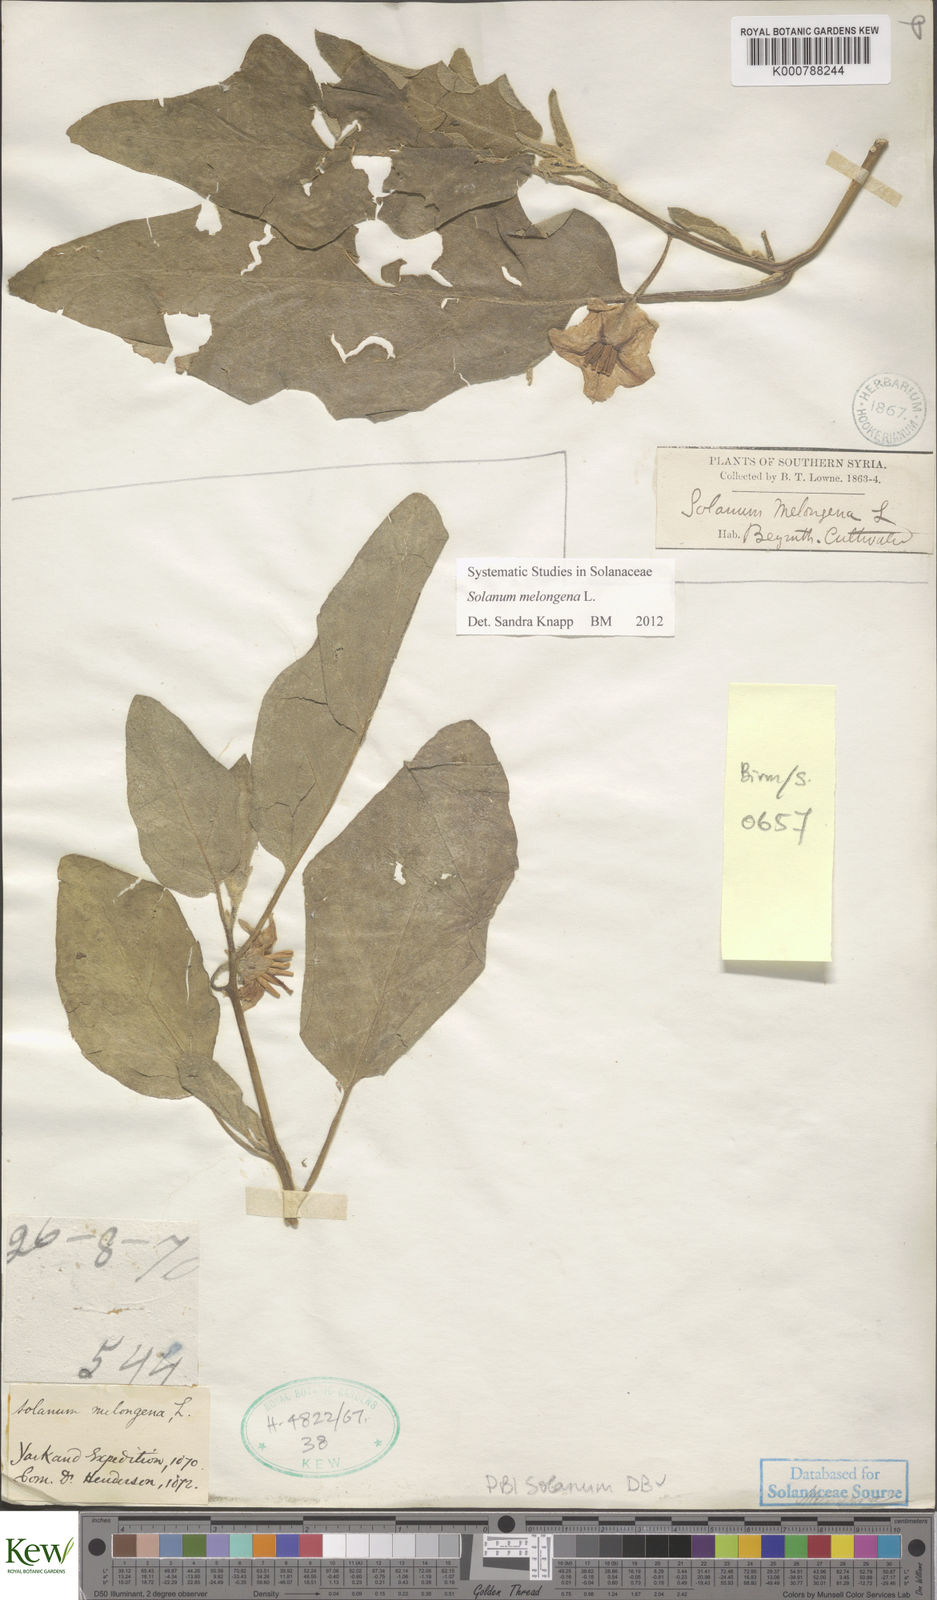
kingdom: Plantae
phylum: Tracheophyta
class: Magnoliopsida
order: Solanales
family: Solanaceae
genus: Solanum
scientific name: Solanum melongena
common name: Eggplant
